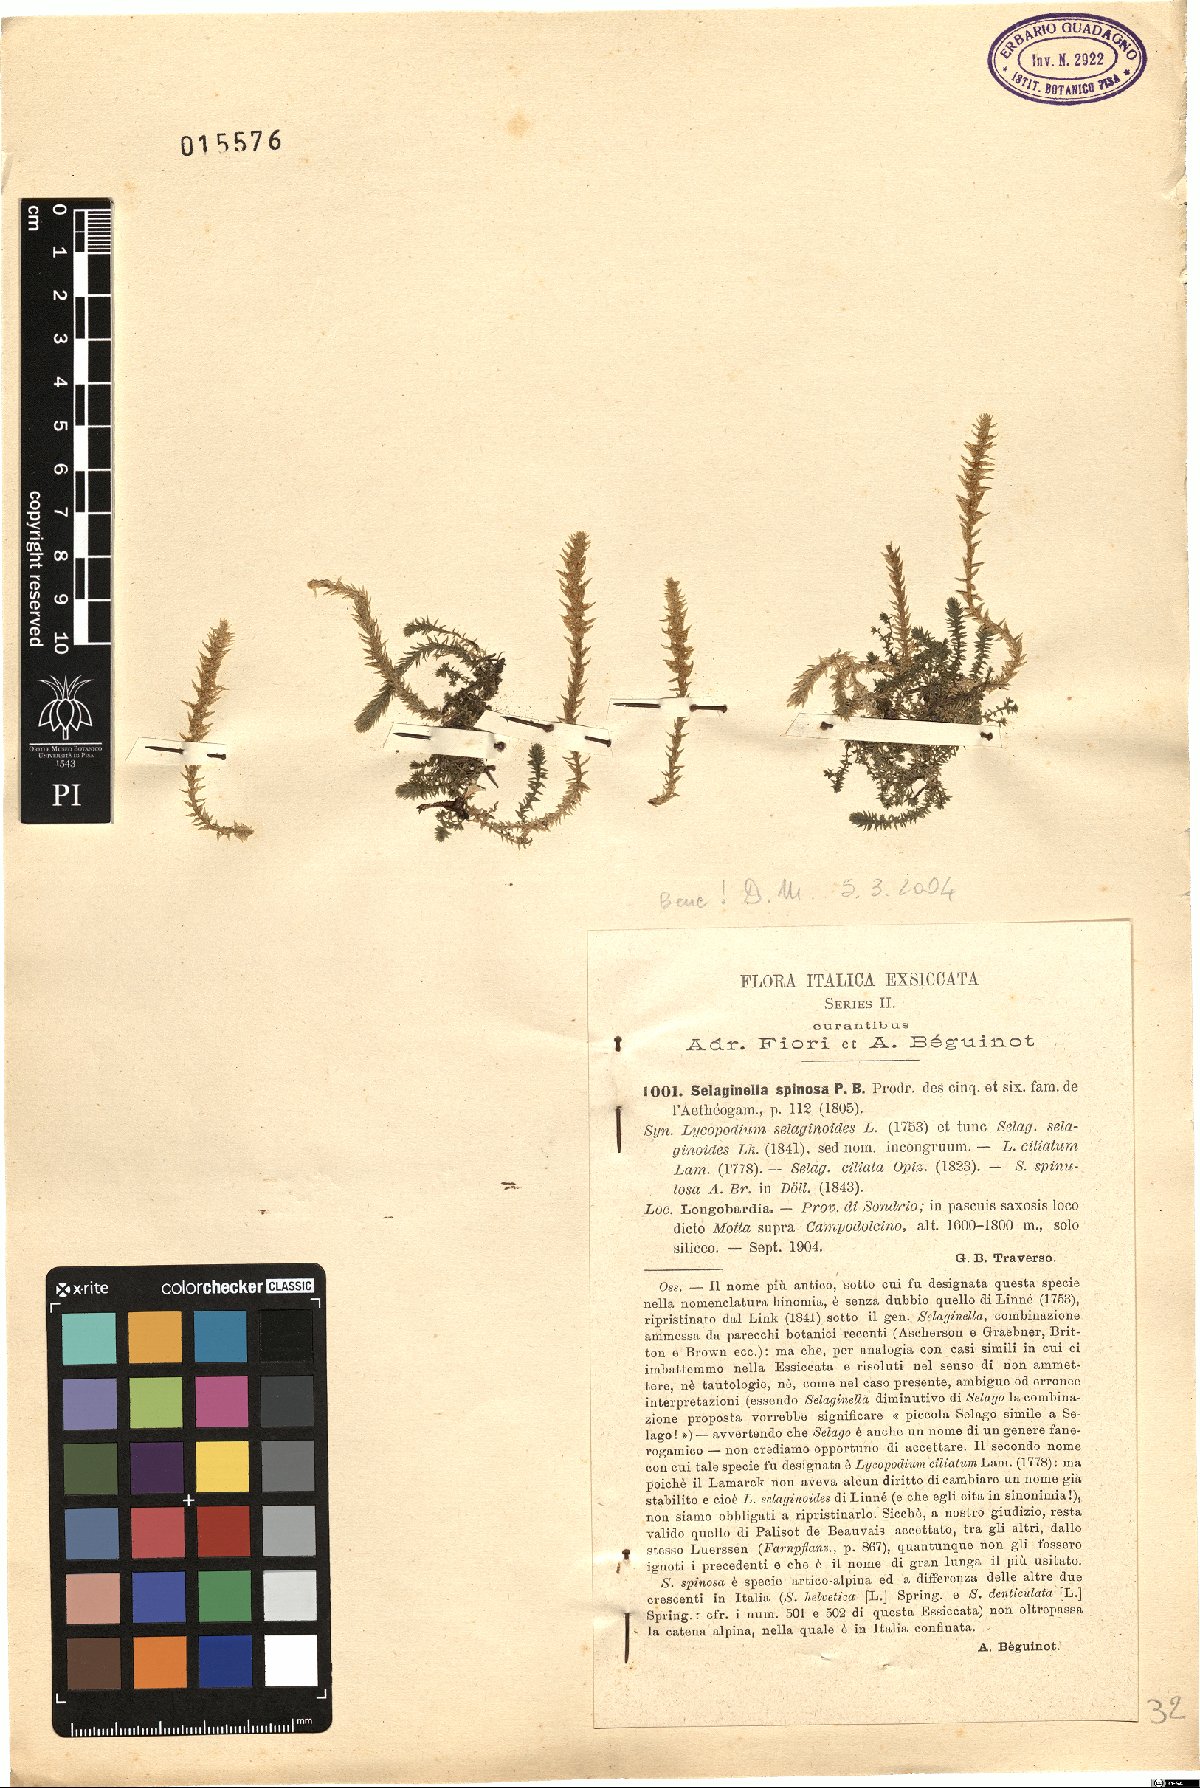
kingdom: Plantae
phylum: Tracheophyta
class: Lycopodiopsida
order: Selaginellales
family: Selaginellaceae
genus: Selaginella
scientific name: Selaginella selaginoides
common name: Prickly mountain-moss
